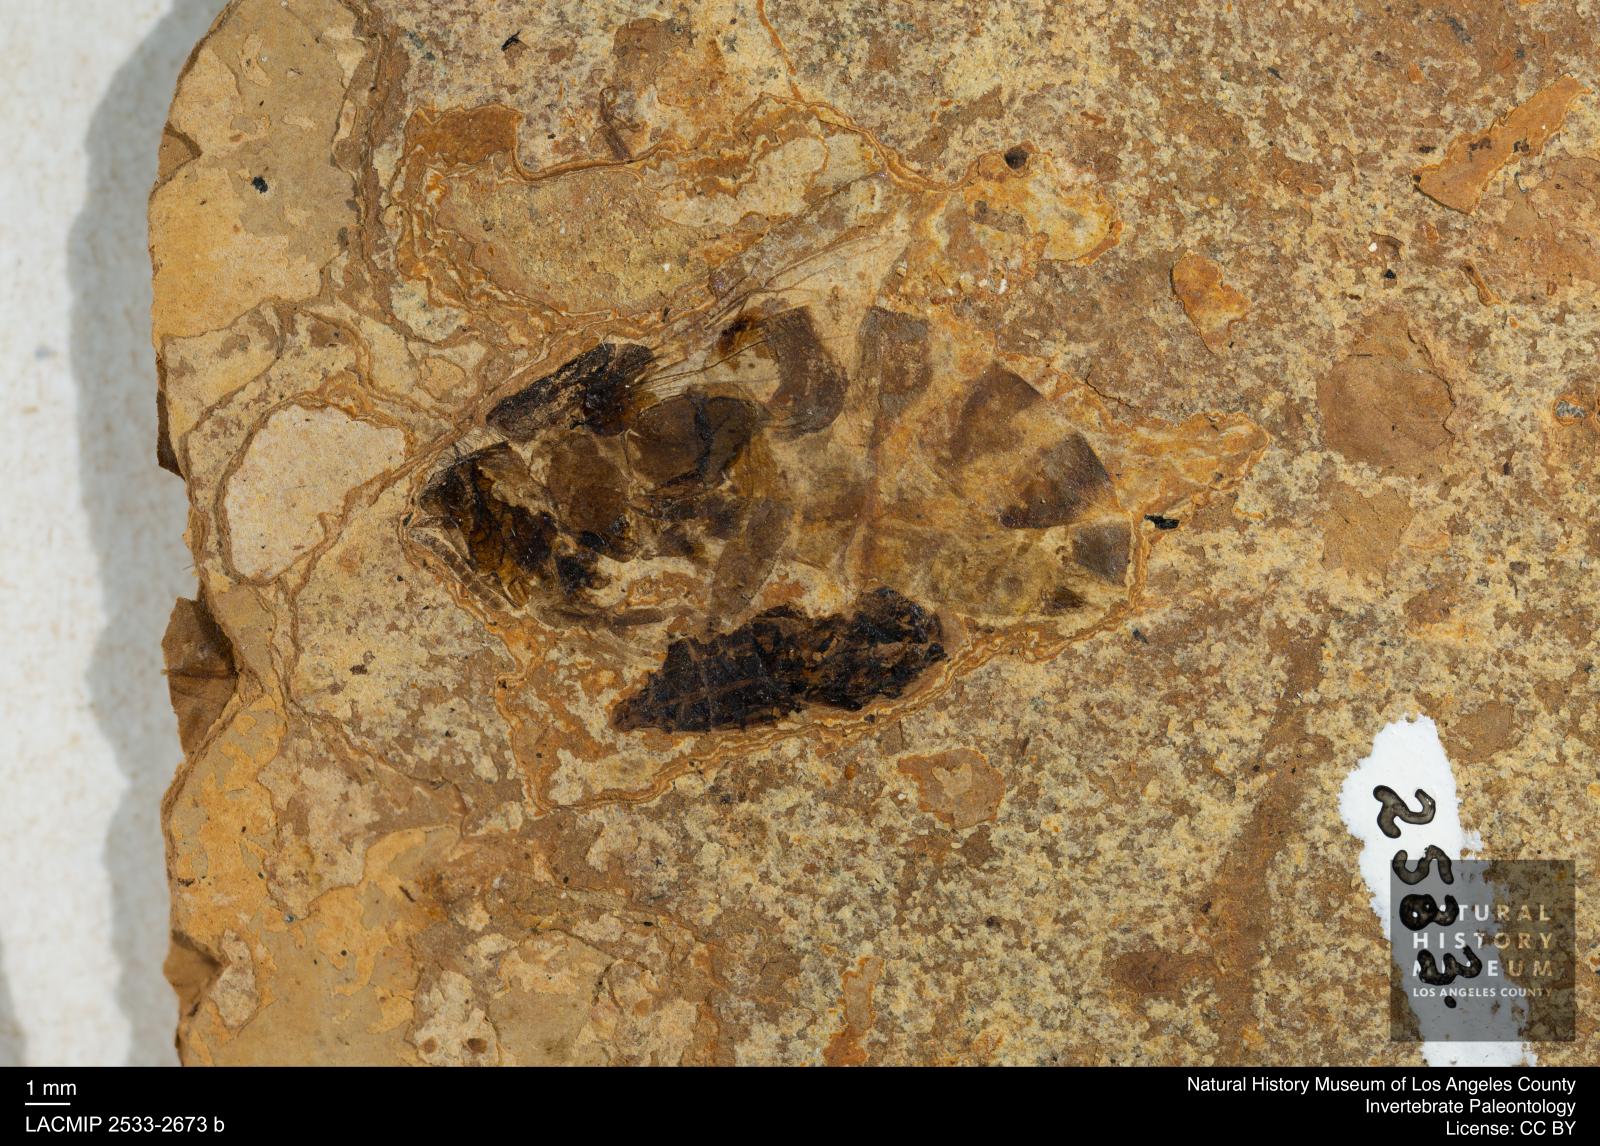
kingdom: Animalia
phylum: Arthropoda
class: Insecta
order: Hymenoptera
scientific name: Hymenoptera
